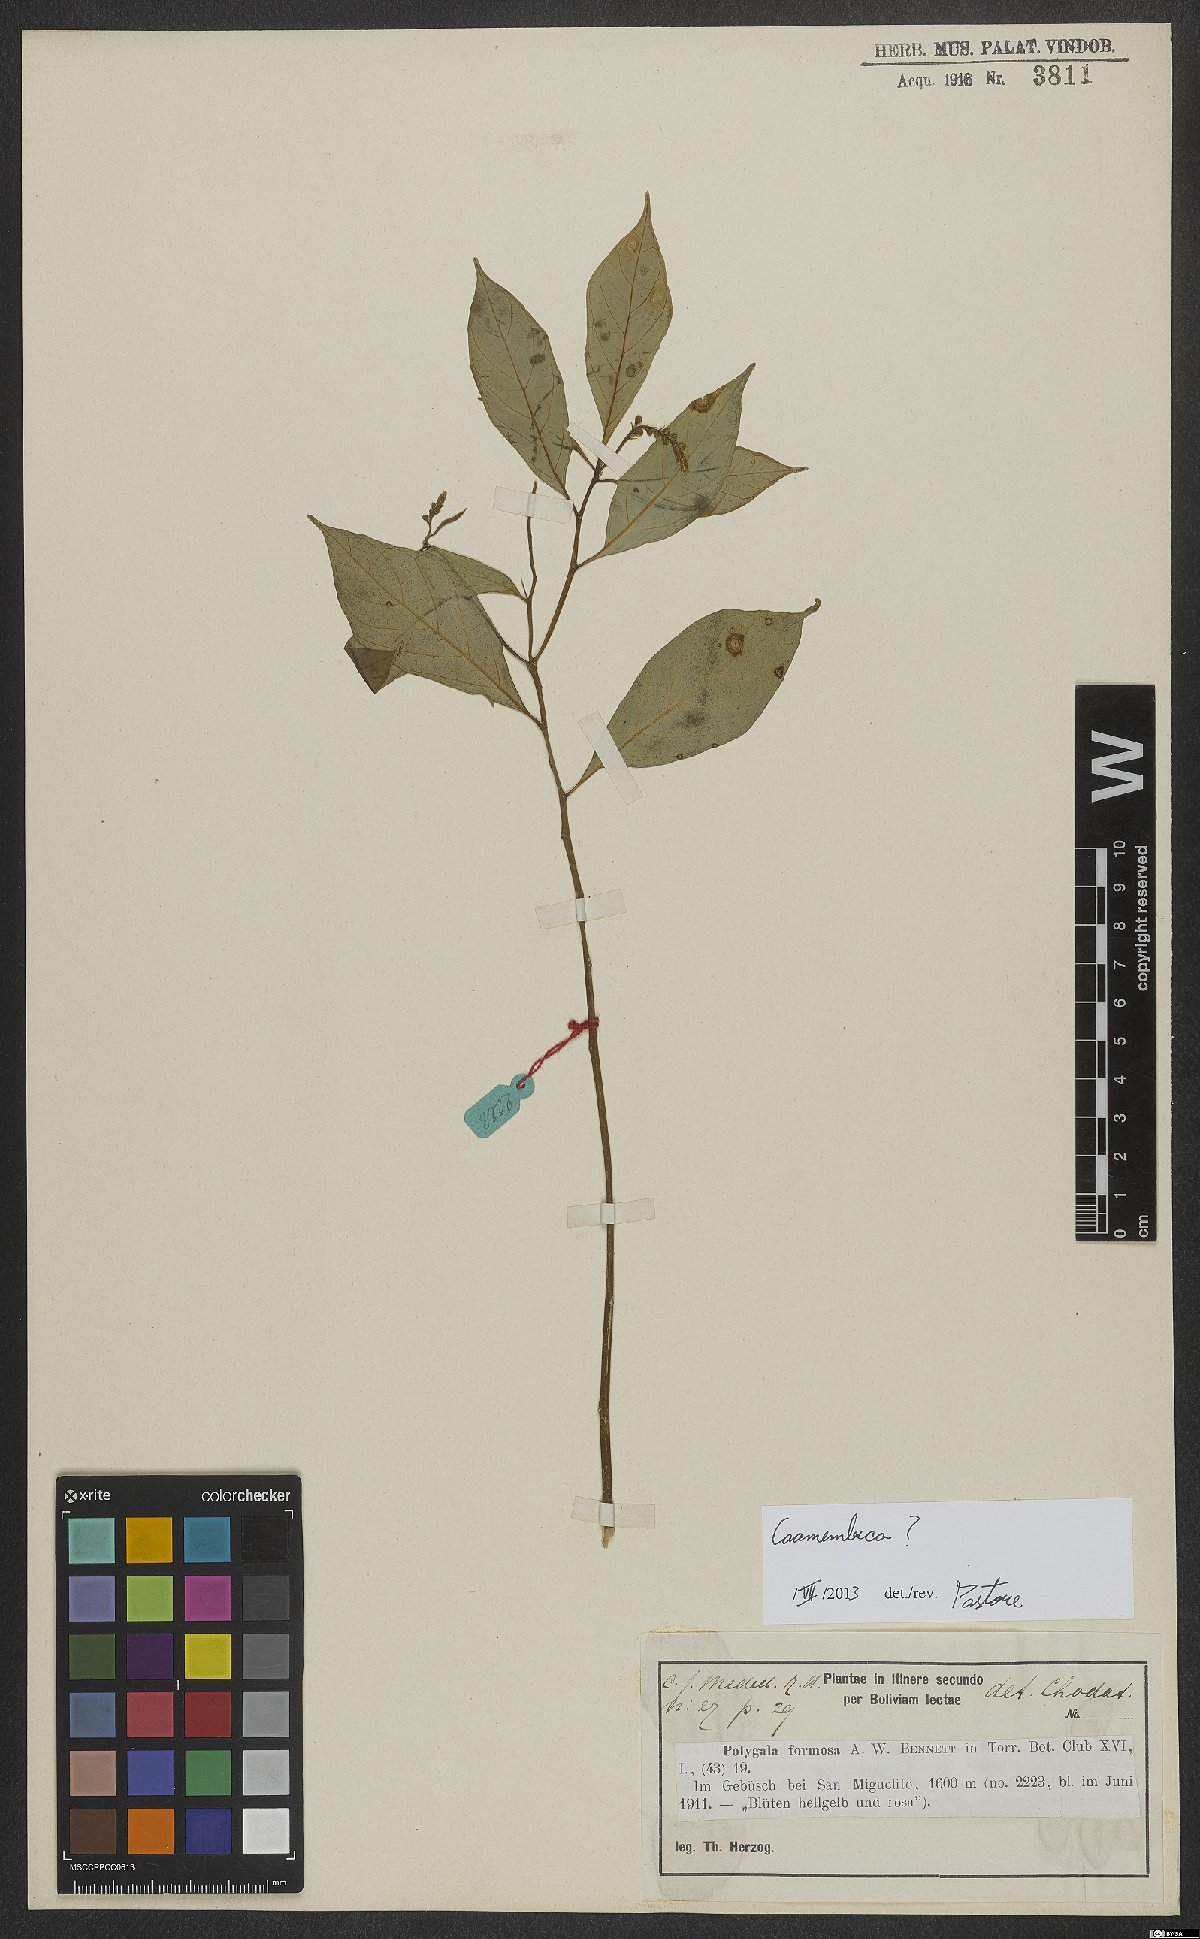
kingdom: Plantae
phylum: Tracheophyta
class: Magnoliopsida
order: Fabales
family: Polygalaceae
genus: Caamembeca
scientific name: Caamembeca
